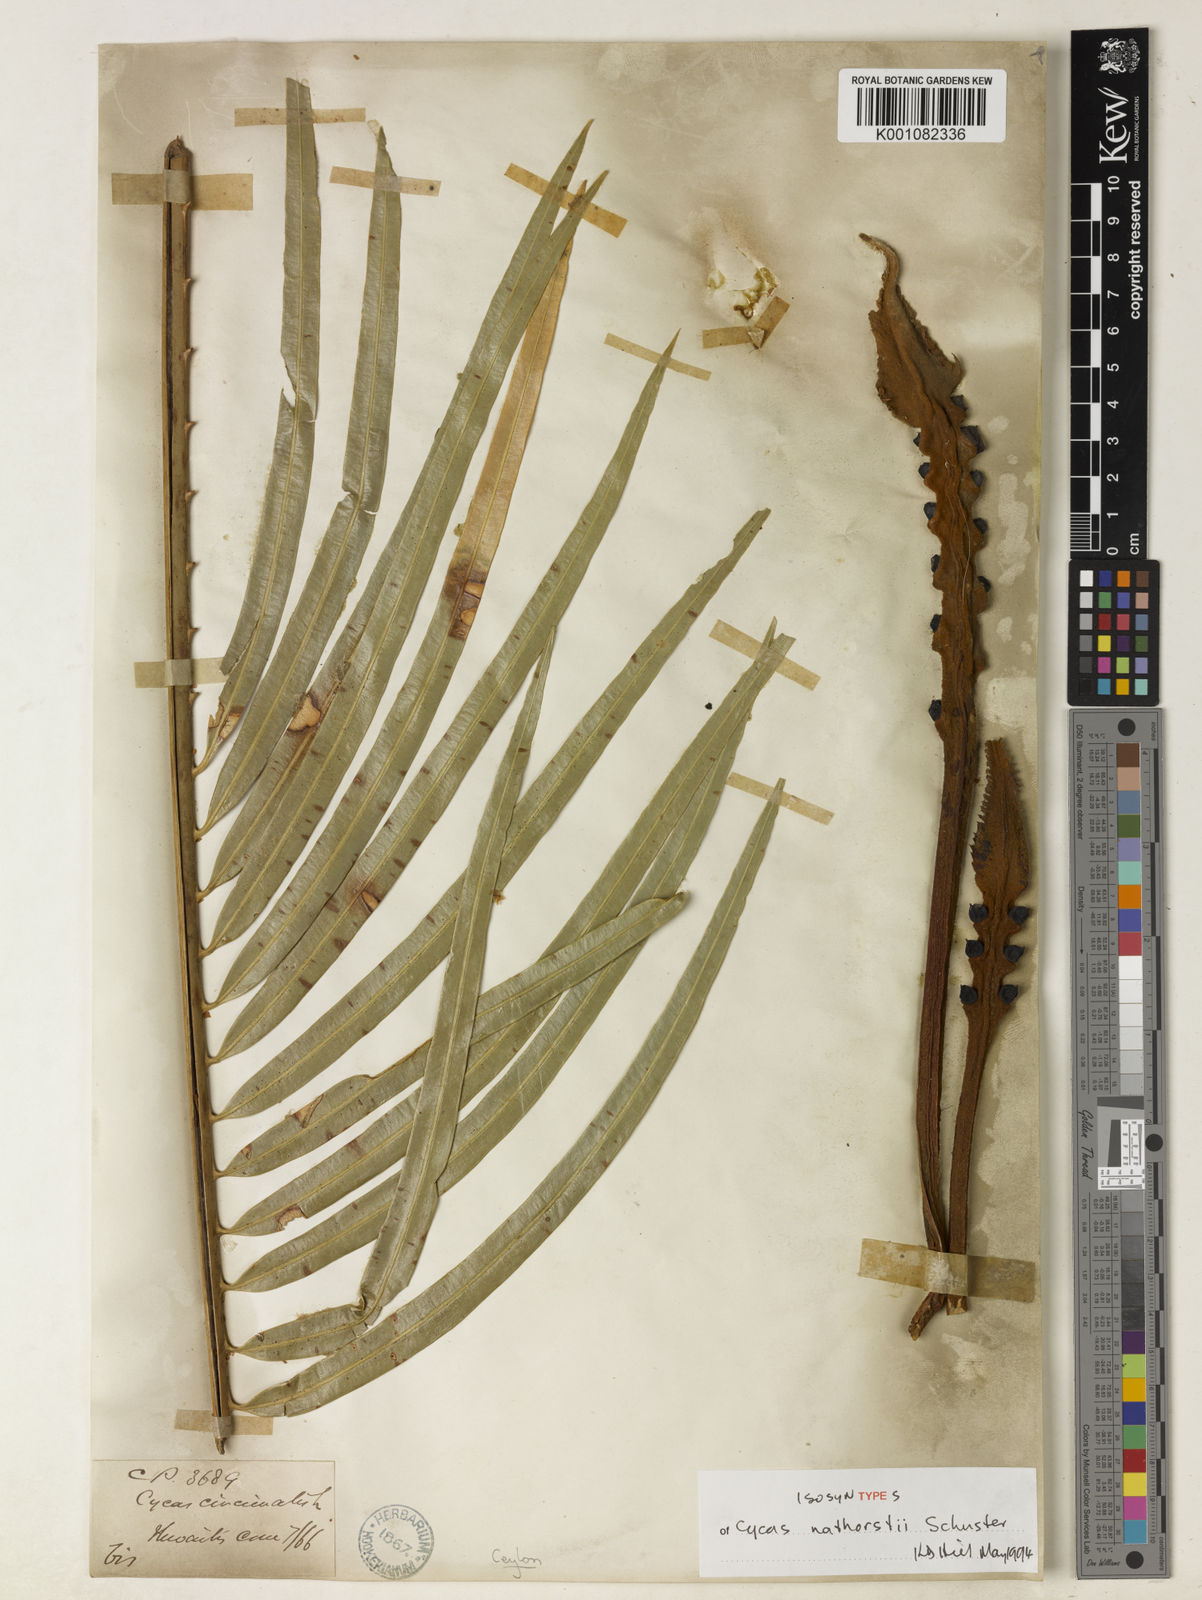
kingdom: Plantae
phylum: Tracheophyta
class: Cycadopsida
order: Cycadales
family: Cycadaceae
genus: Cycas
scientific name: Cycas nathorstii
